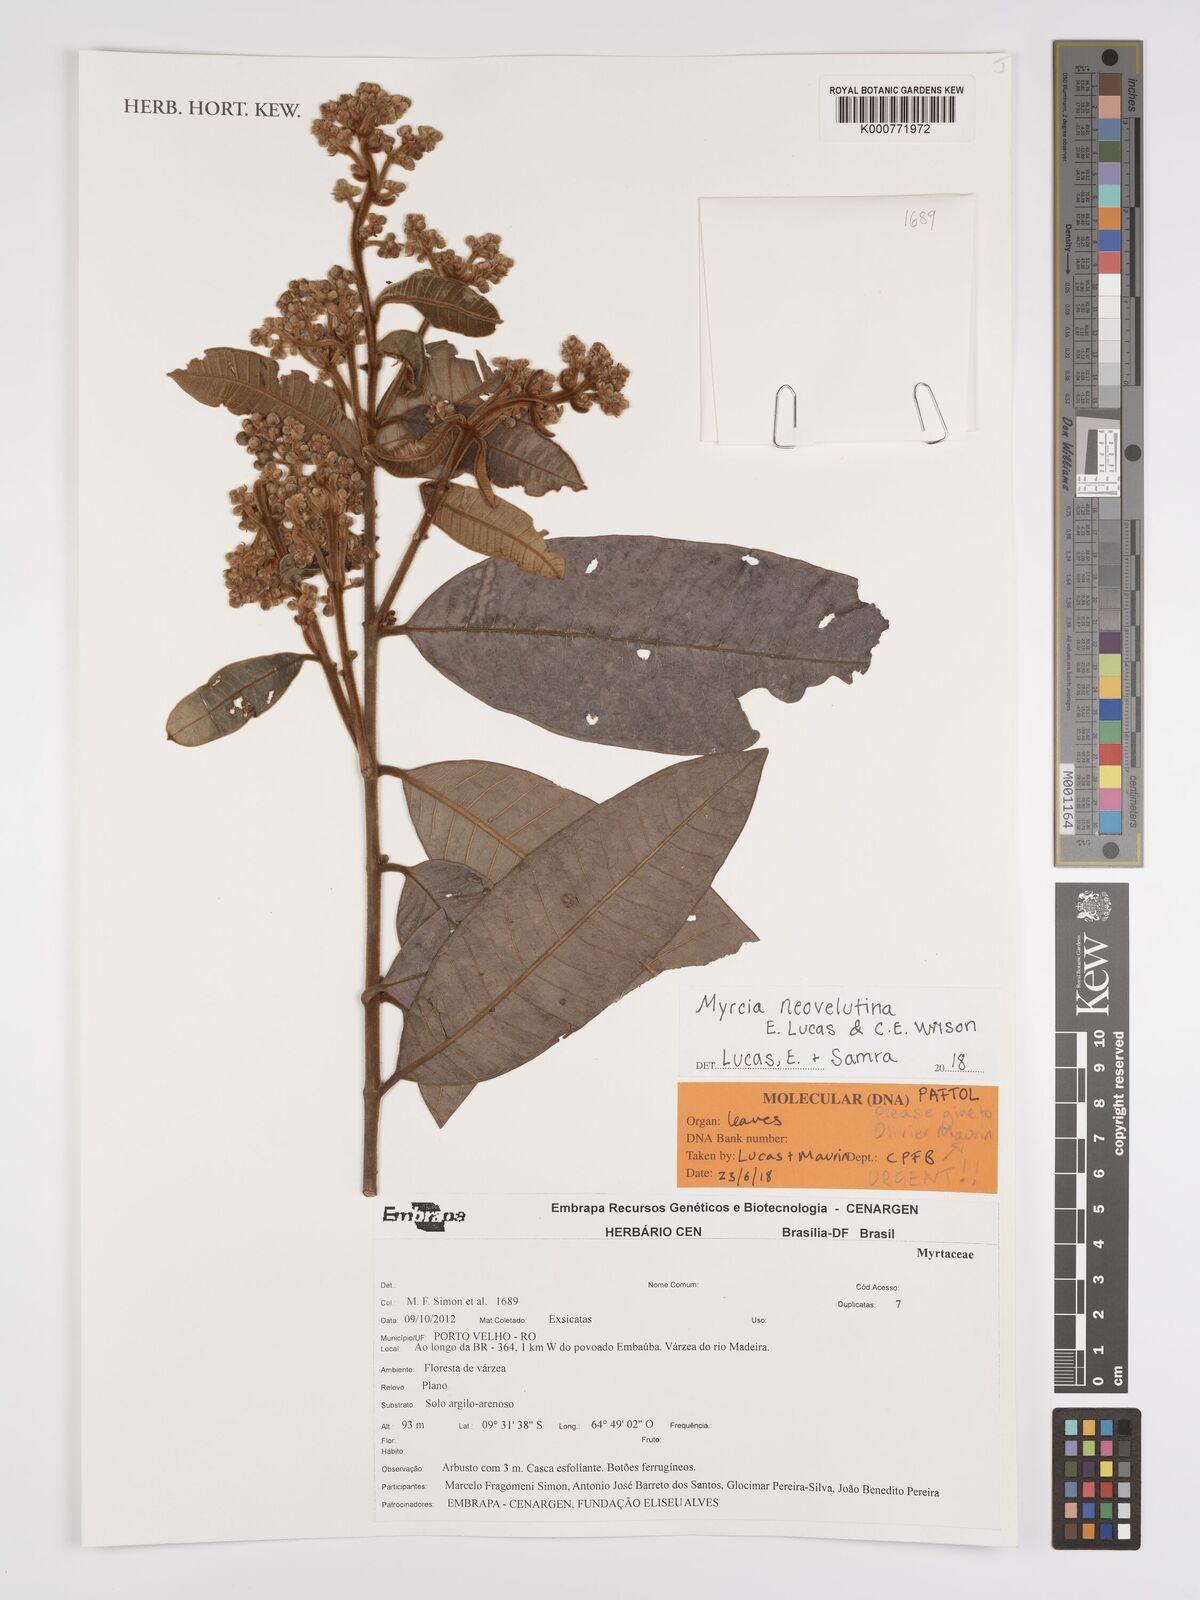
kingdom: Plantae
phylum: Tracheophyta
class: Magnoliopsida
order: Myrtales
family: Myrtaceae
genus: Myrcia
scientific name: Myrcia neovelutina
